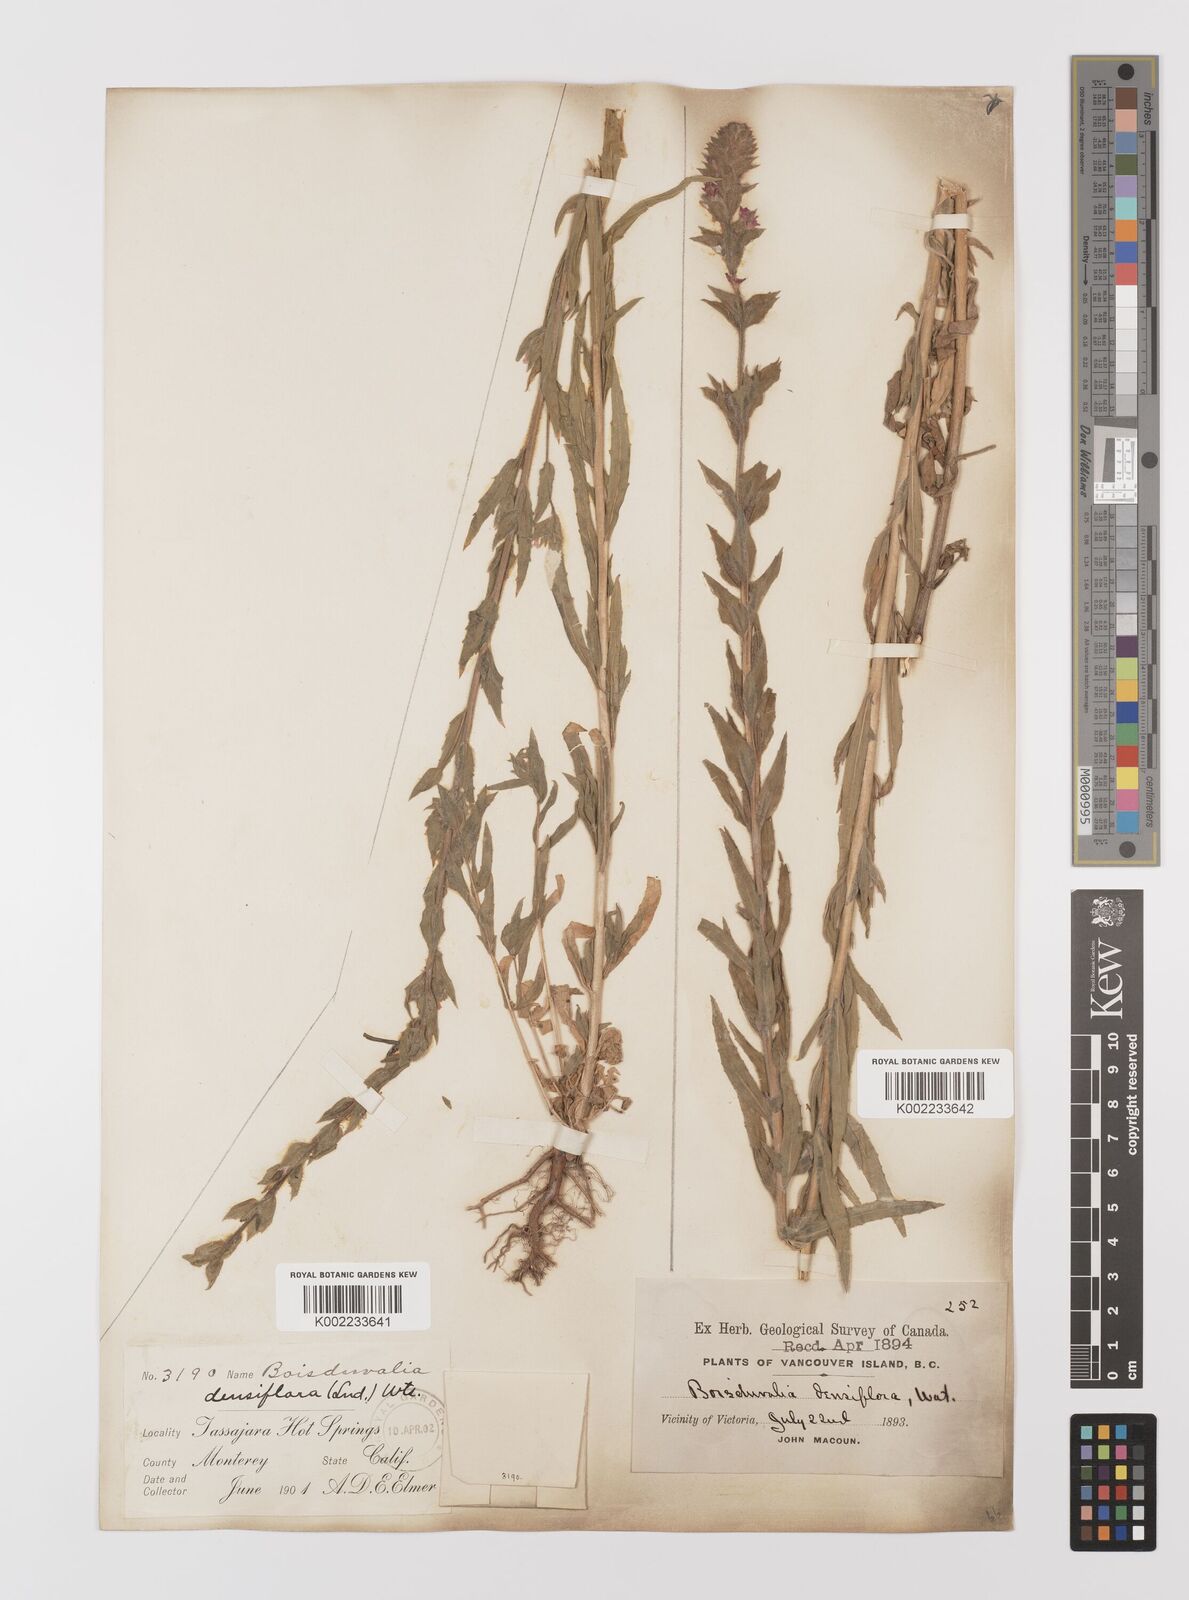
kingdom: Plantae
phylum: Tracheophyta
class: Magnoliopsida
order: Myrtales
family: Onagraceae
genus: Epilobium
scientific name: Epilobium densiflorum
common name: Dense spike-primrose
